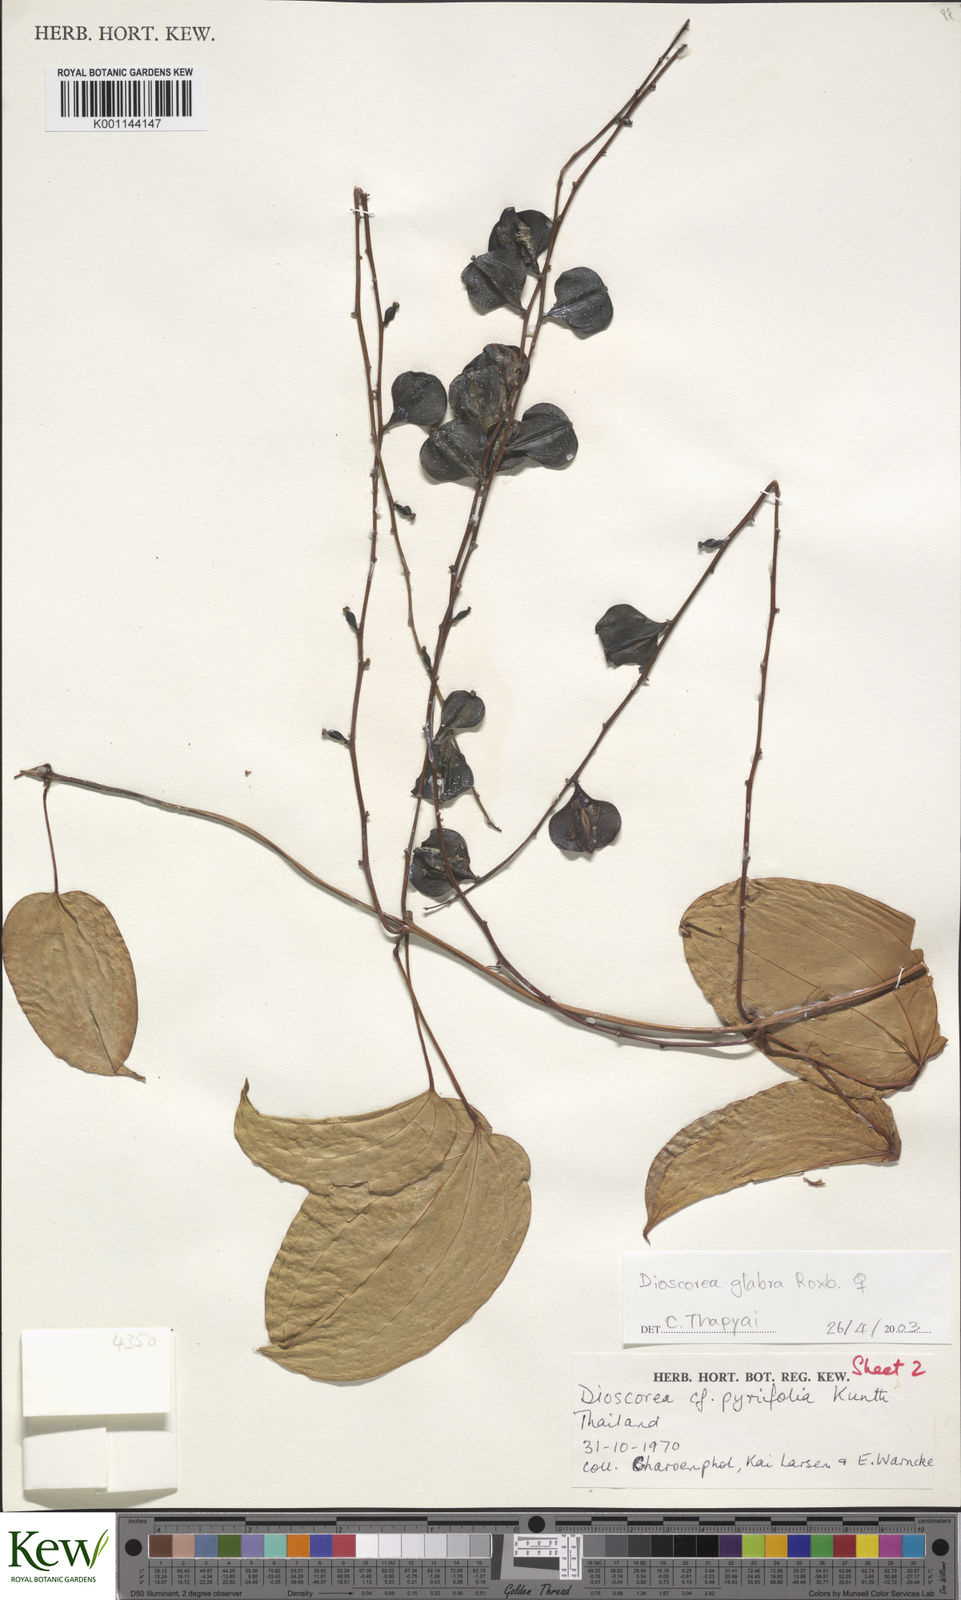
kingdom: Plantae
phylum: Tracheophyta
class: Liliopsida
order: Dioscoreales
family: Dioscoreaceae
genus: Dioscorea
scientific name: Dioscorea glabra
